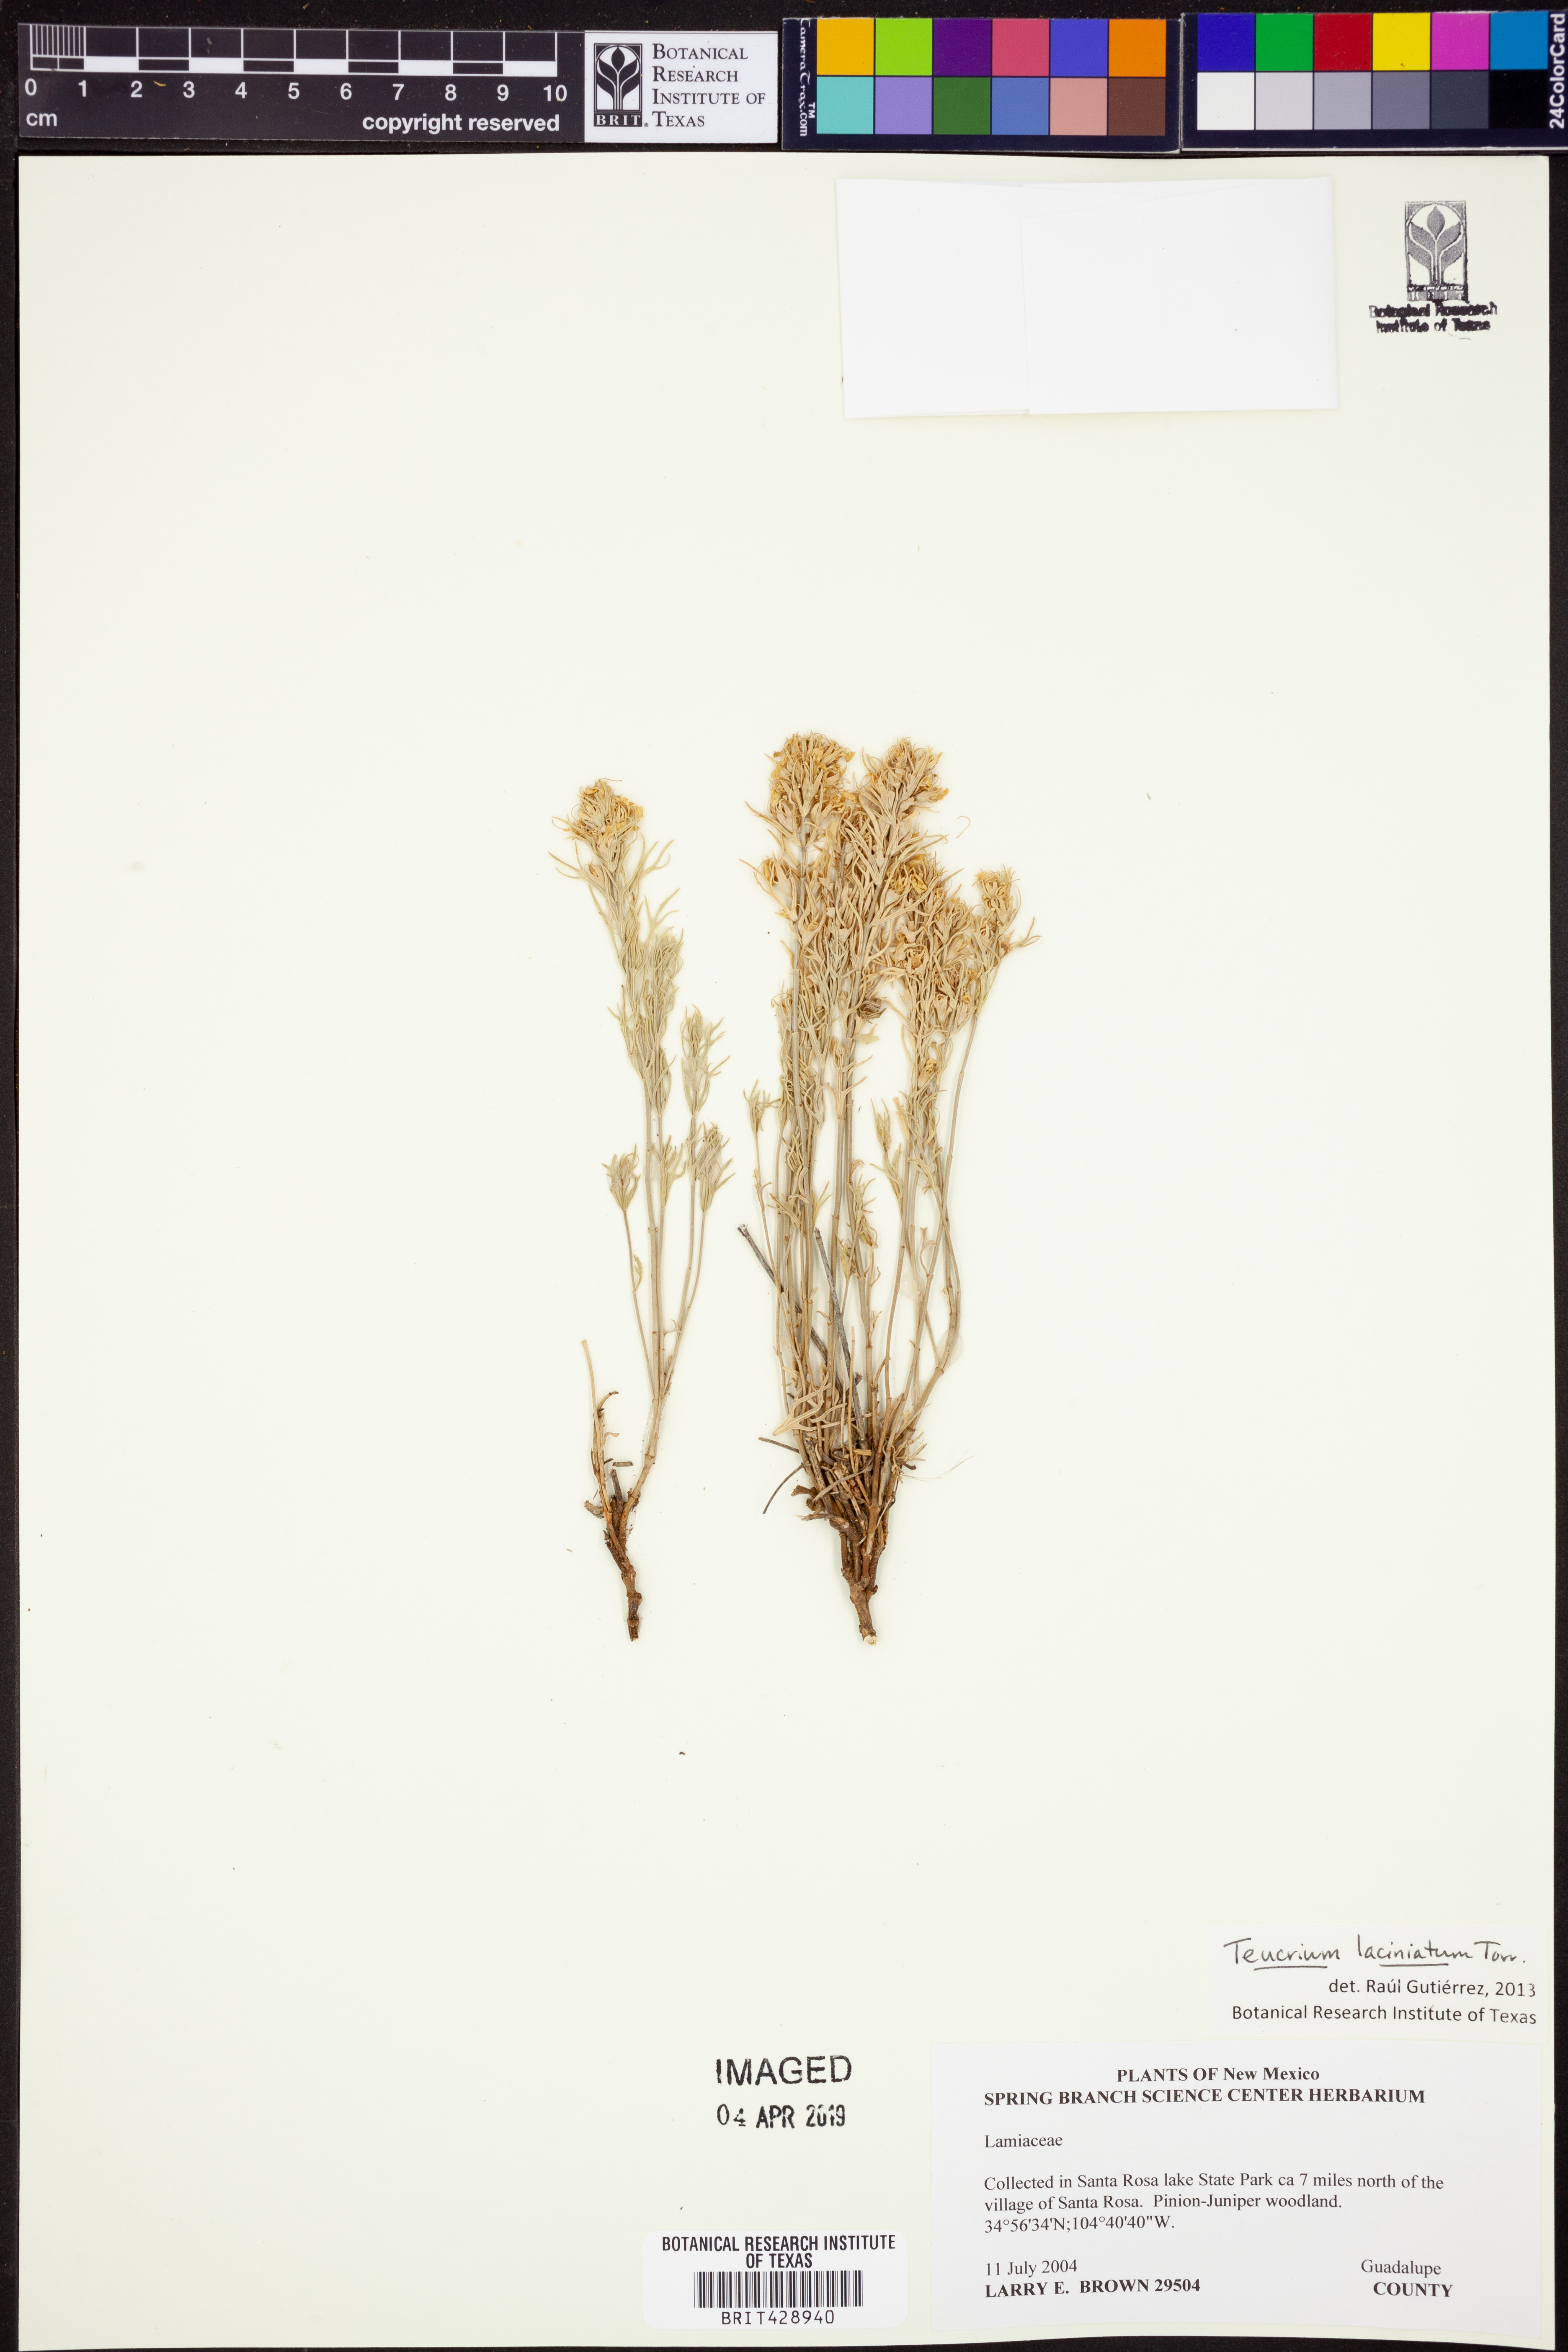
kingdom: Plantae
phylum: Tracheophyta
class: Magnoliopsida
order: Lamiales
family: Lamiaceae
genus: Teucrium
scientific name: Teucrium laciniatum
